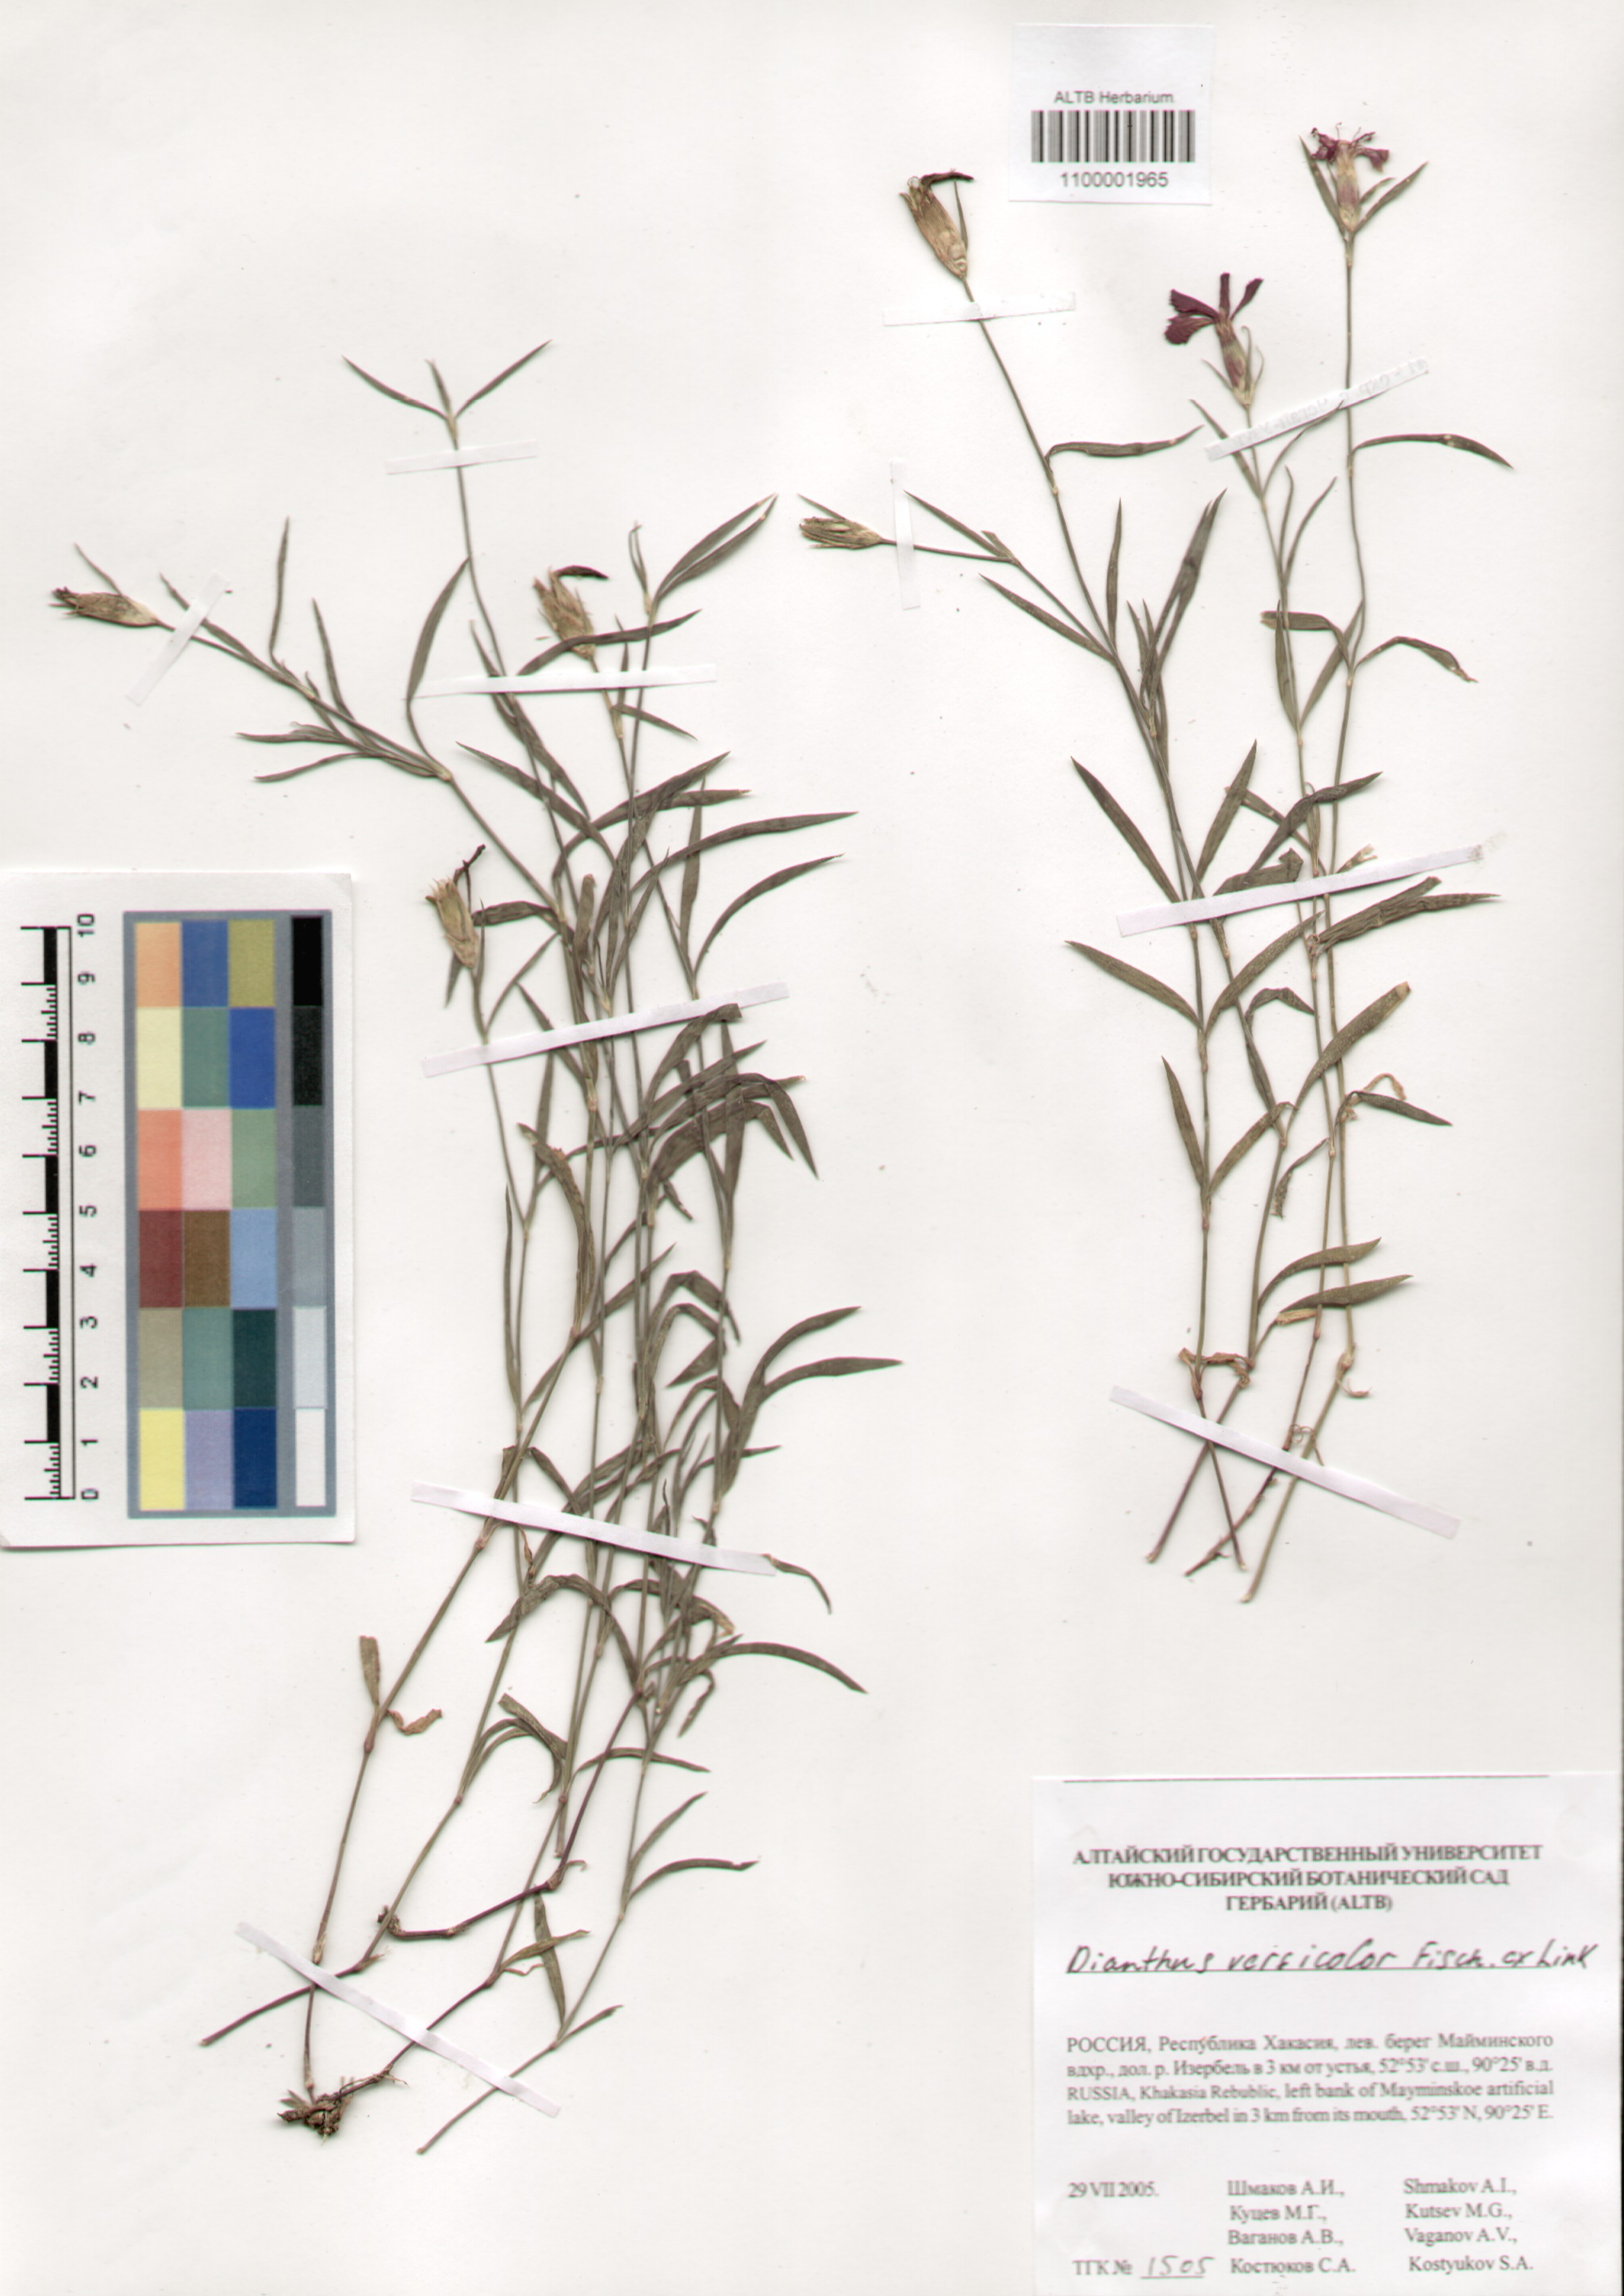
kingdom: Plantae
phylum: Tracheophyta
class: Magnoliopsida
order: Caryophyllales
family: Caryophyllaceae
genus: Dianthus
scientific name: Dianthus chinensis
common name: Rainbow pink
